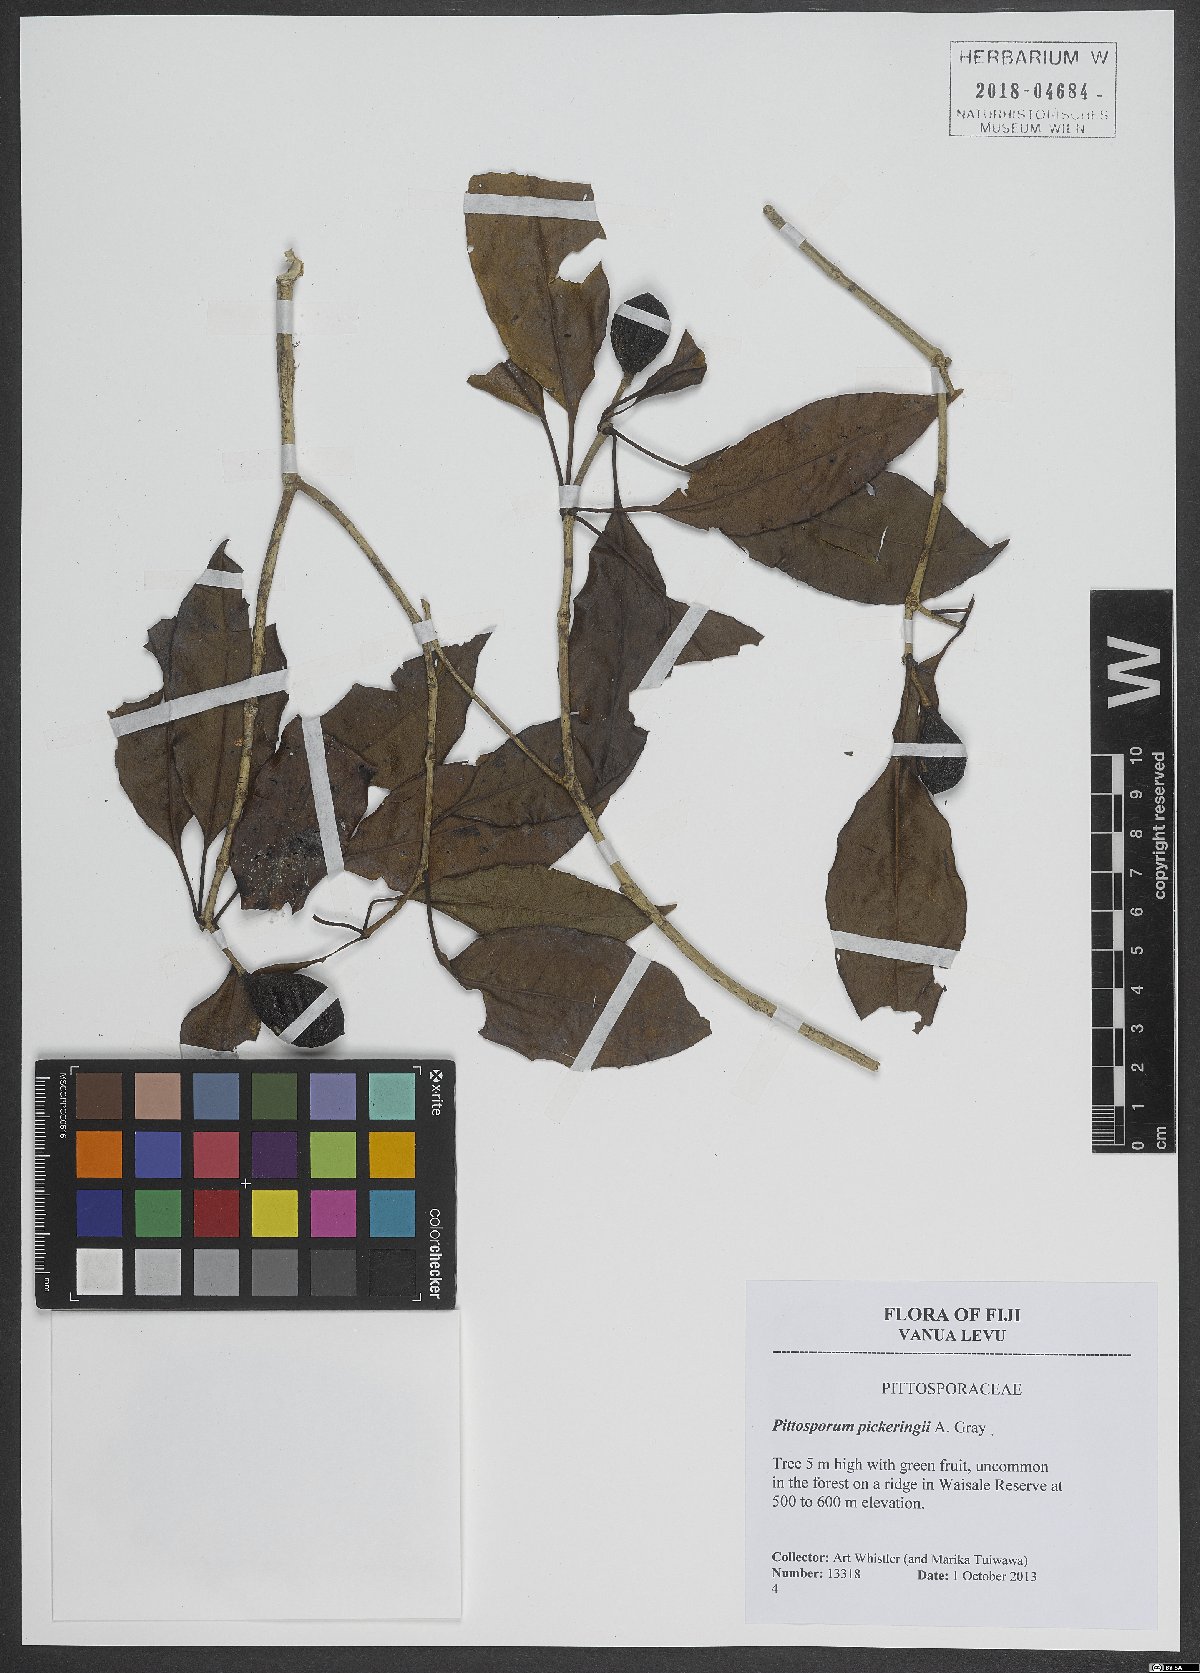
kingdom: Plantae
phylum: Tracheophyta
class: Magnoliopsida
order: Apiales
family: Pittosporaceae
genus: Pittosporum
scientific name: Pittosporum pickeringii
